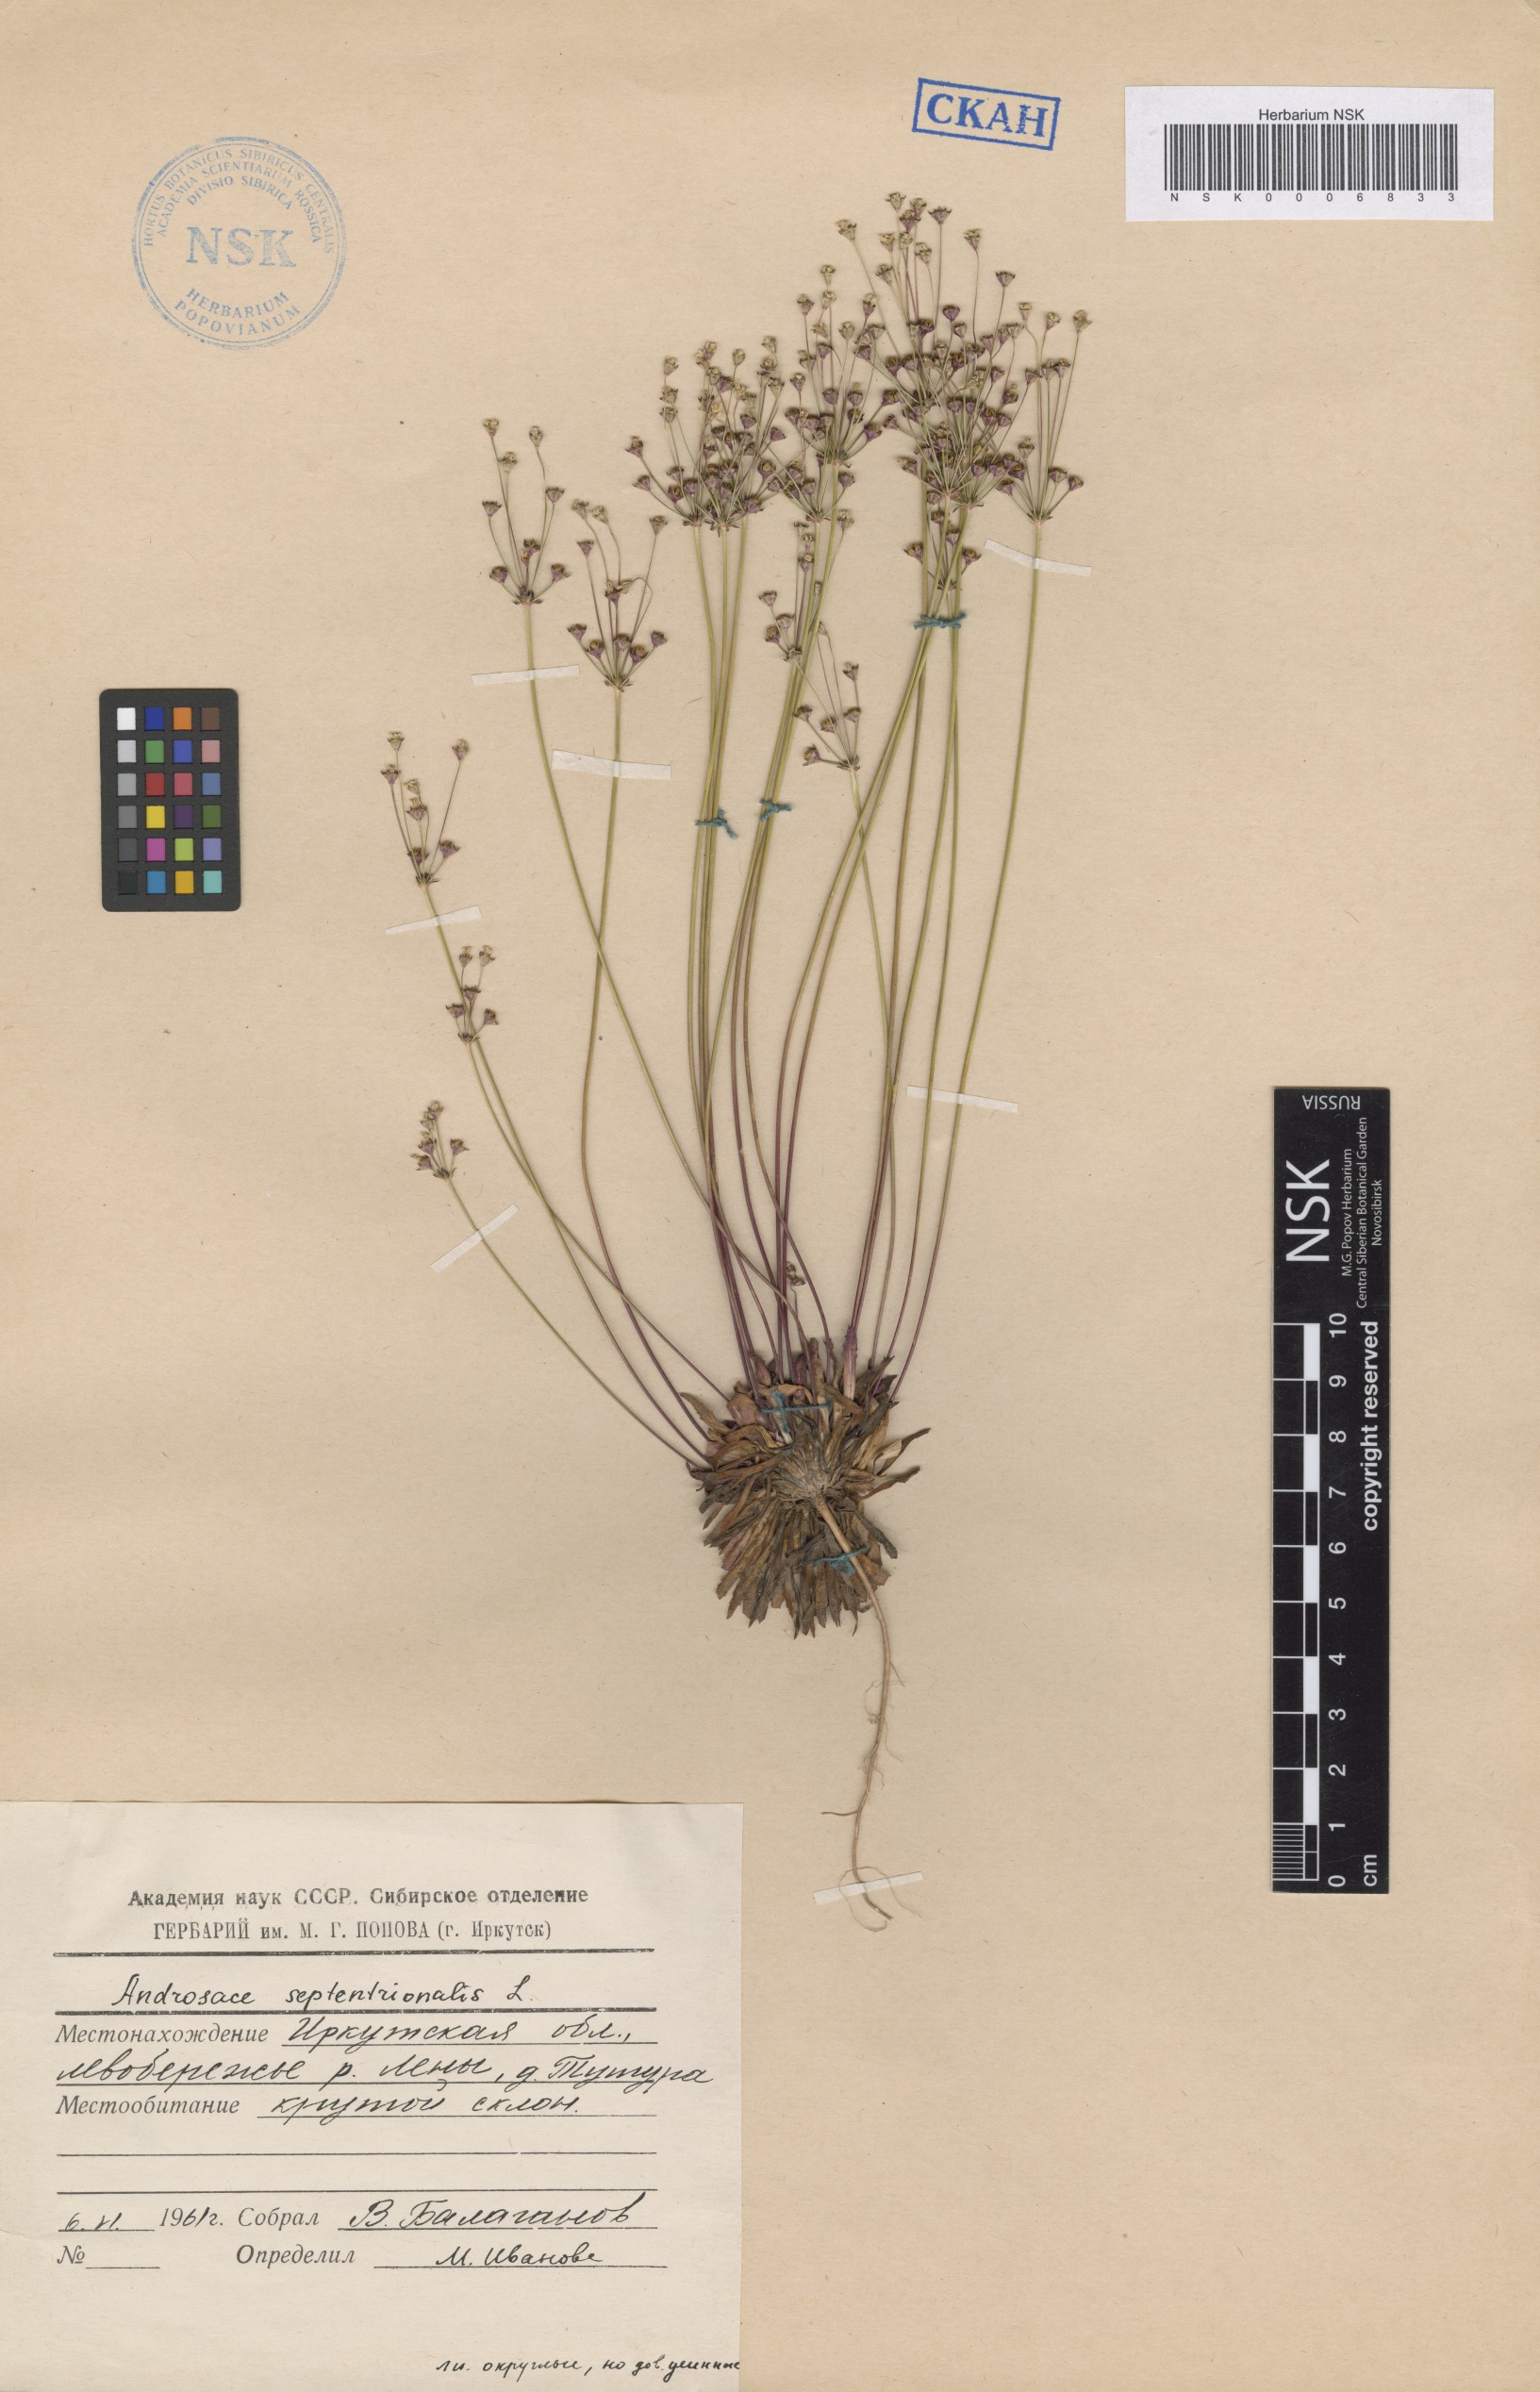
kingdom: Plantae
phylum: Tracheophyta
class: Magnoliopsida
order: Ericales
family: Primulaceae
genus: Androsace
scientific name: Androsace septentrionalis
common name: Hairy northern fairy-candelabra
